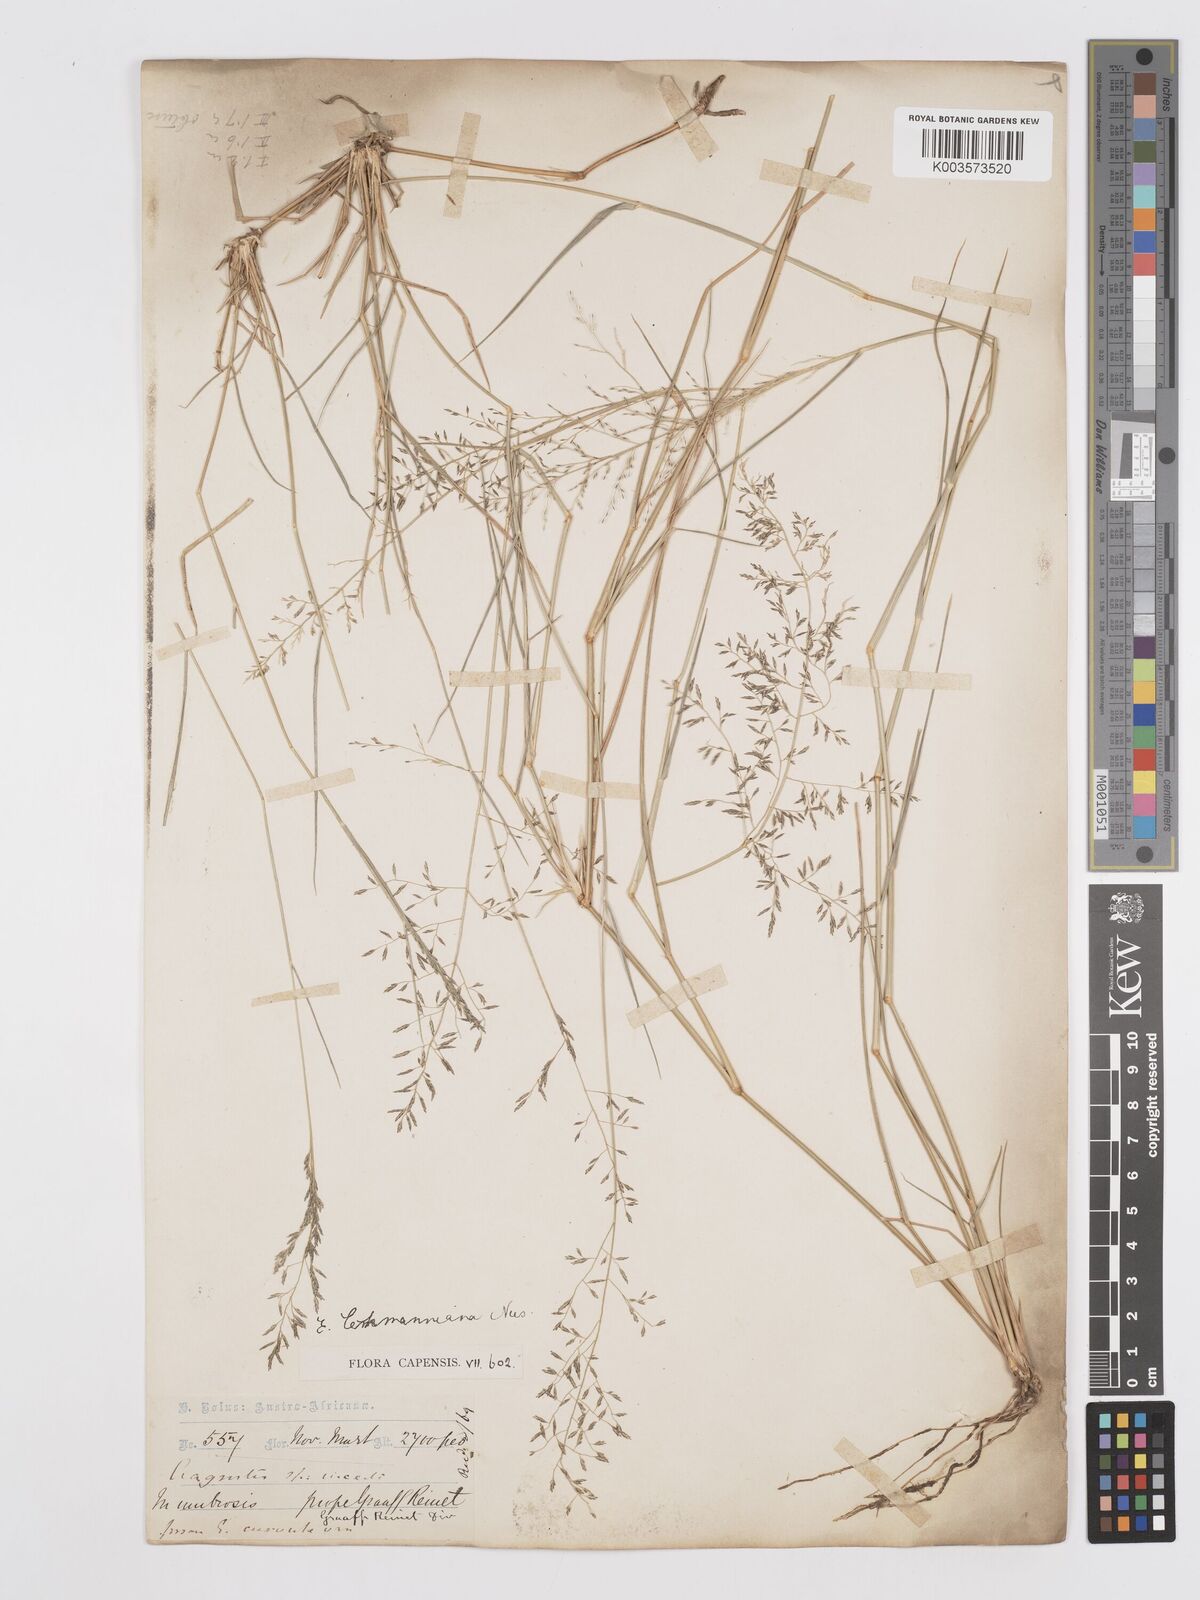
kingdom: Plantae
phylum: Tracheophyta
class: Liliopsida
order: Poales
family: Poaceae
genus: Eragrostis
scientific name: Eragrostis lehmanniana
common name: Lehmann lovegrass
